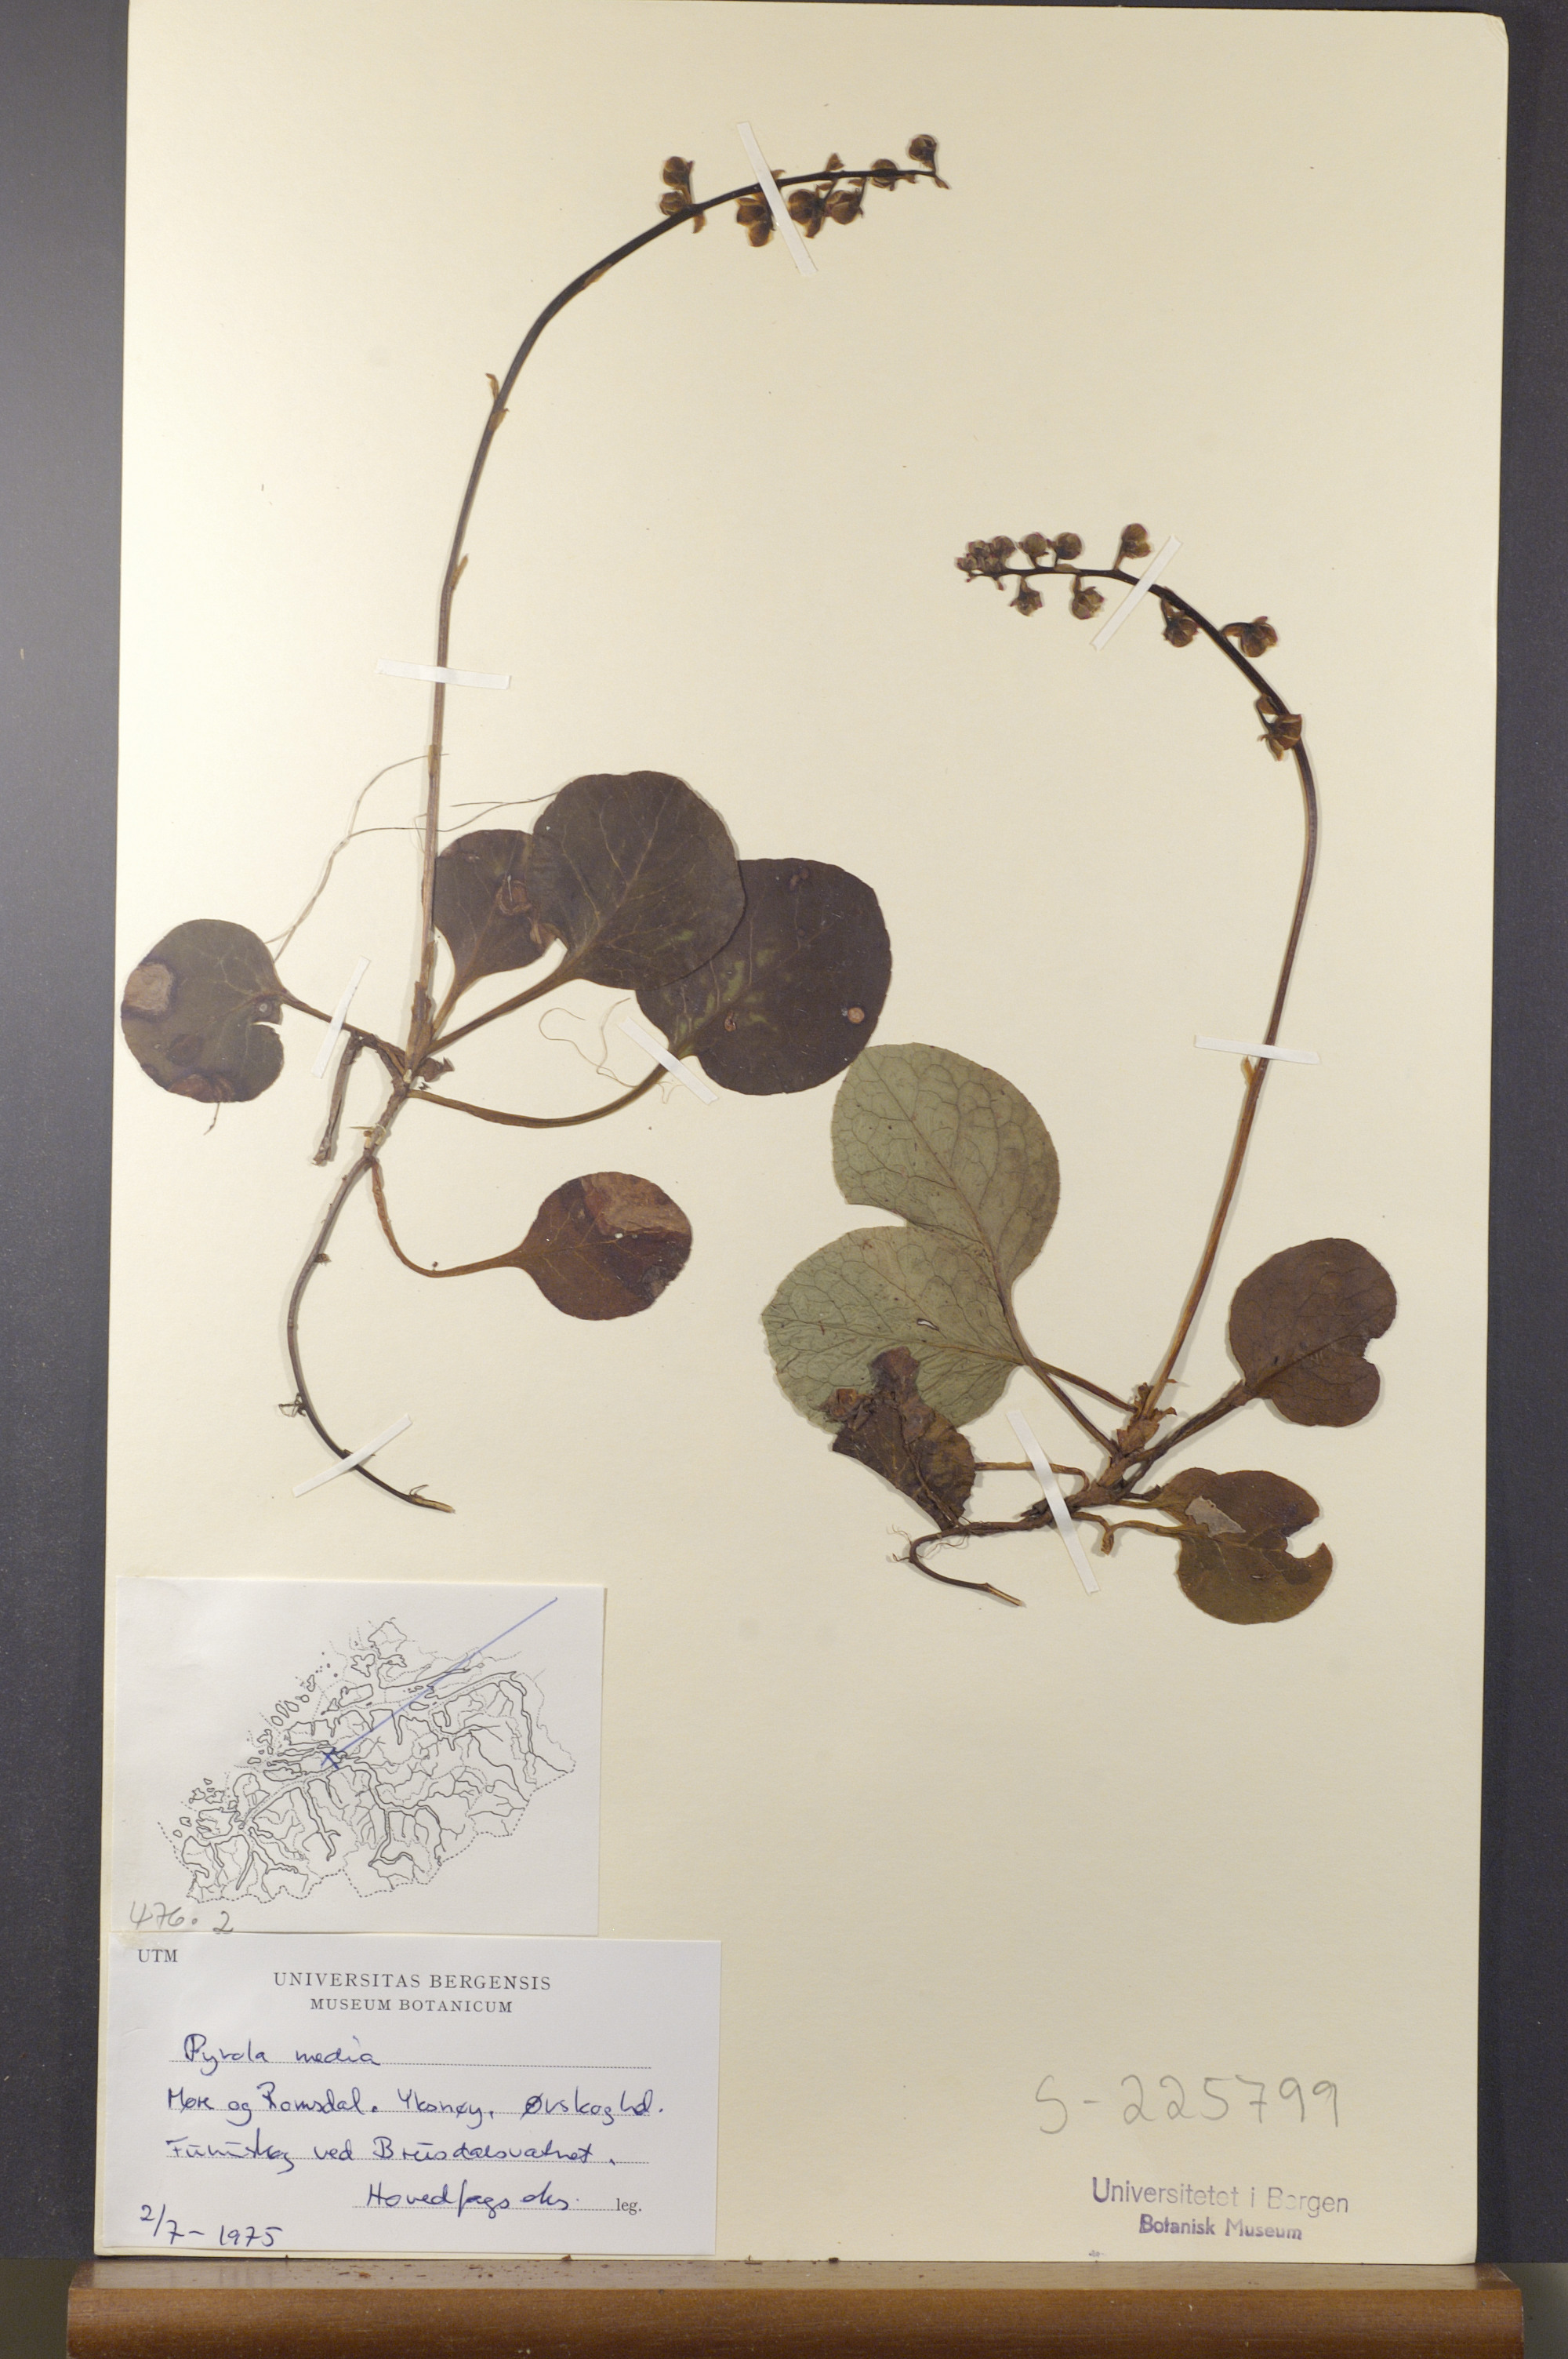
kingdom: Plantae
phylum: Tracheophyta
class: Magnoliopsida
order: Ericales
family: Ericaceae
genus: Pyrola
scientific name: Pyrola media
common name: Intermediate wintergreen
